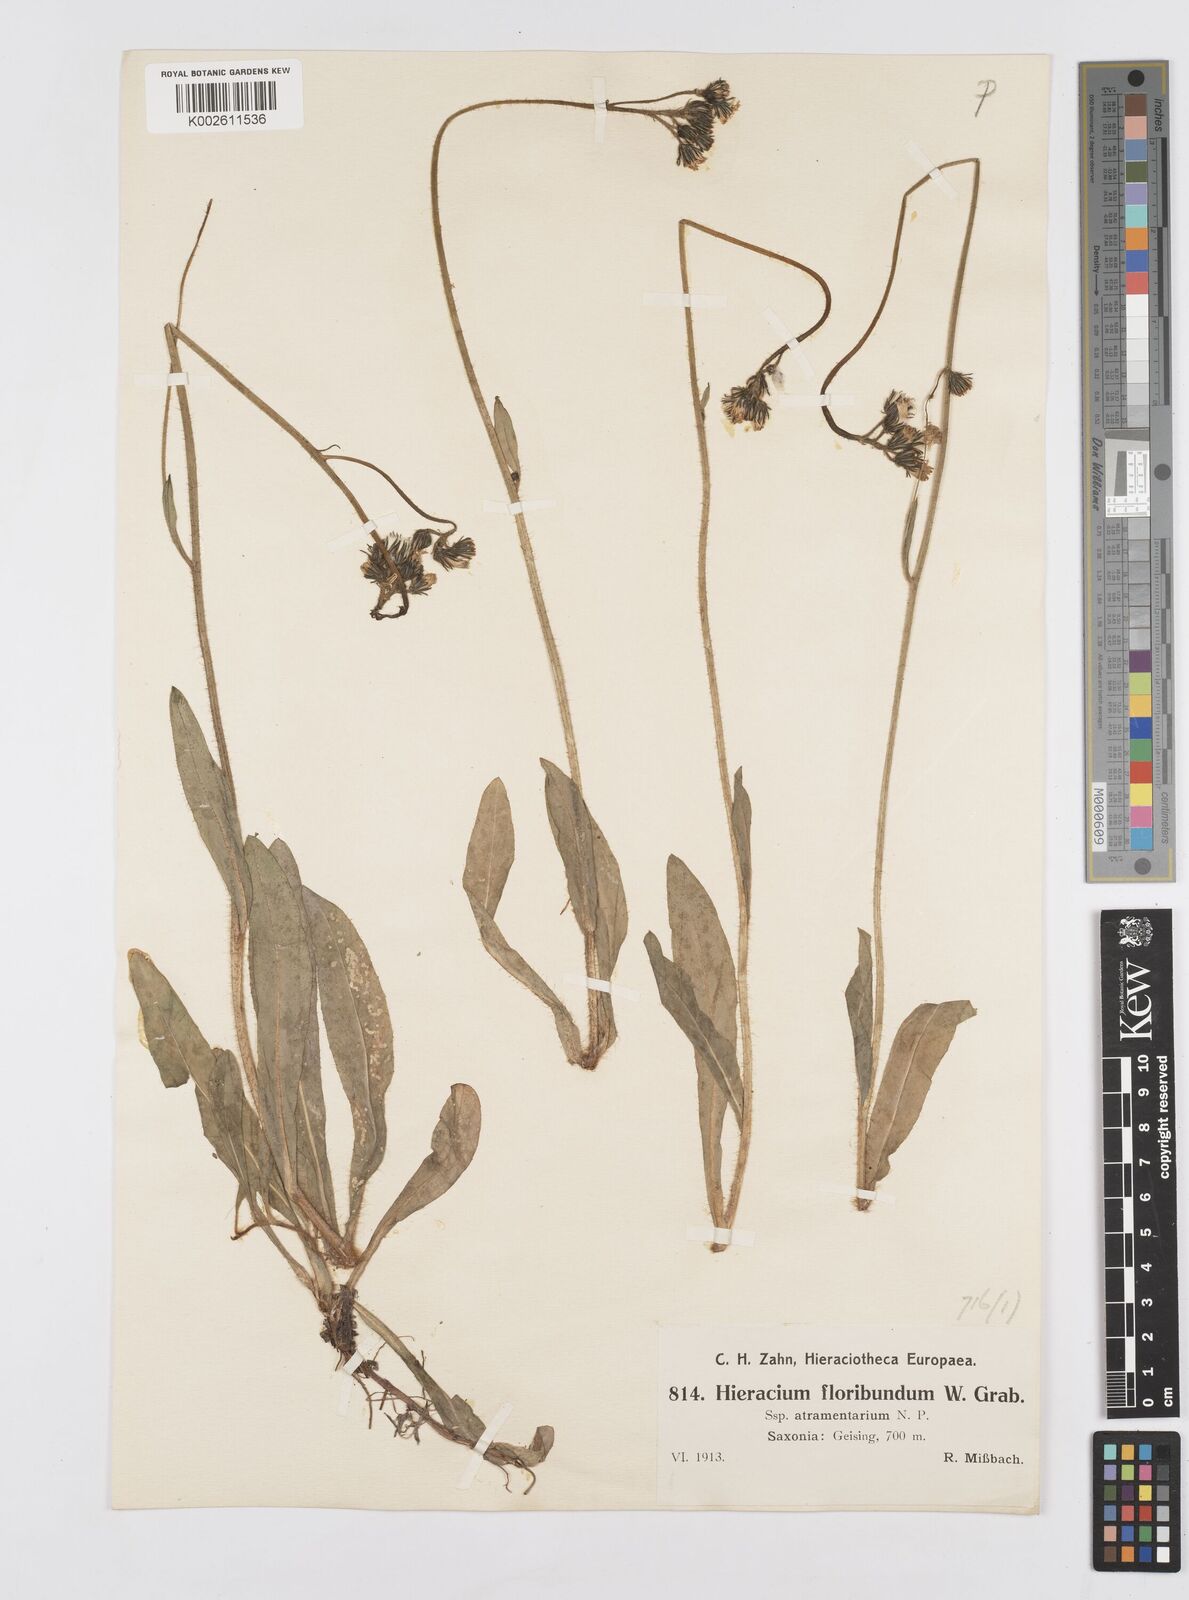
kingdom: Plantae
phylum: Tracheophyta
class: Magnoliopsida
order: Asterales
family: Asteraceae
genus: Pilosella
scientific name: Pilosella floribunda
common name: Glaucous hawkweed
